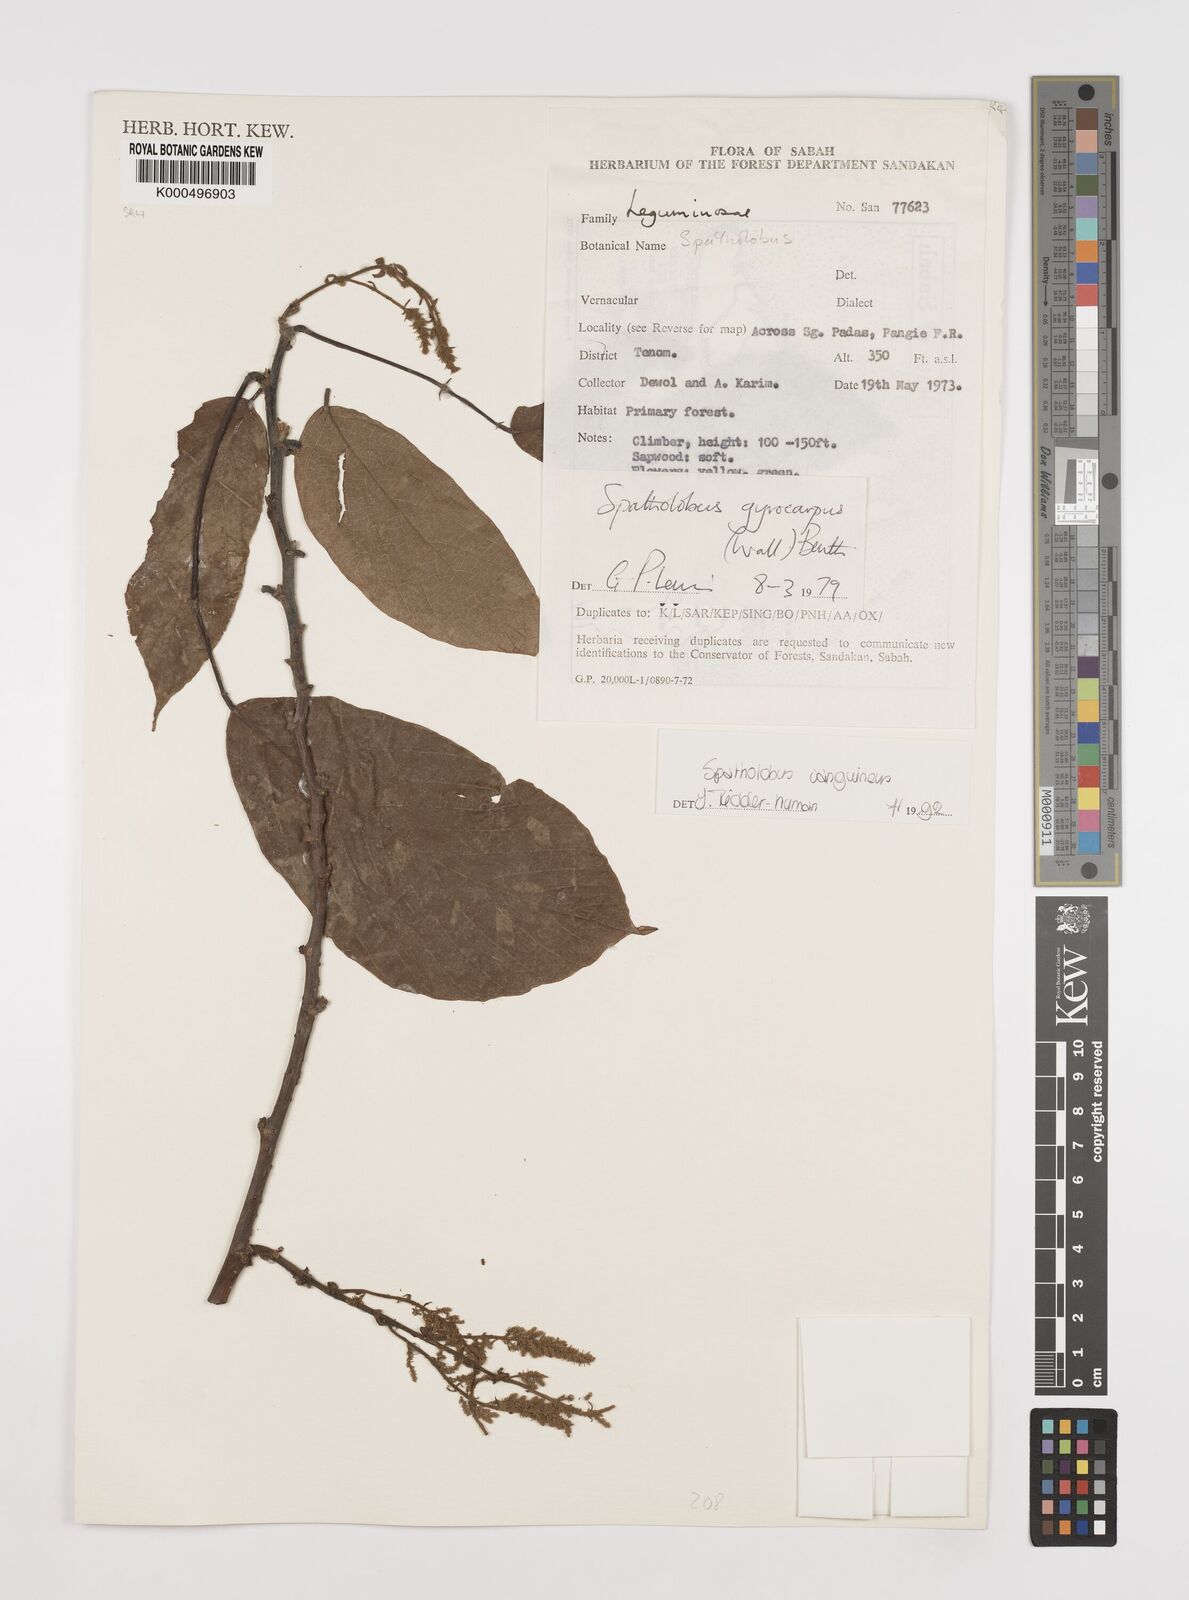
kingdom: Plantae
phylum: Tracheophyta
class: Magnoliopsida
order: Fabales
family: Fabaceae
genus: Spatholobus
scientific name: Spatholobus
